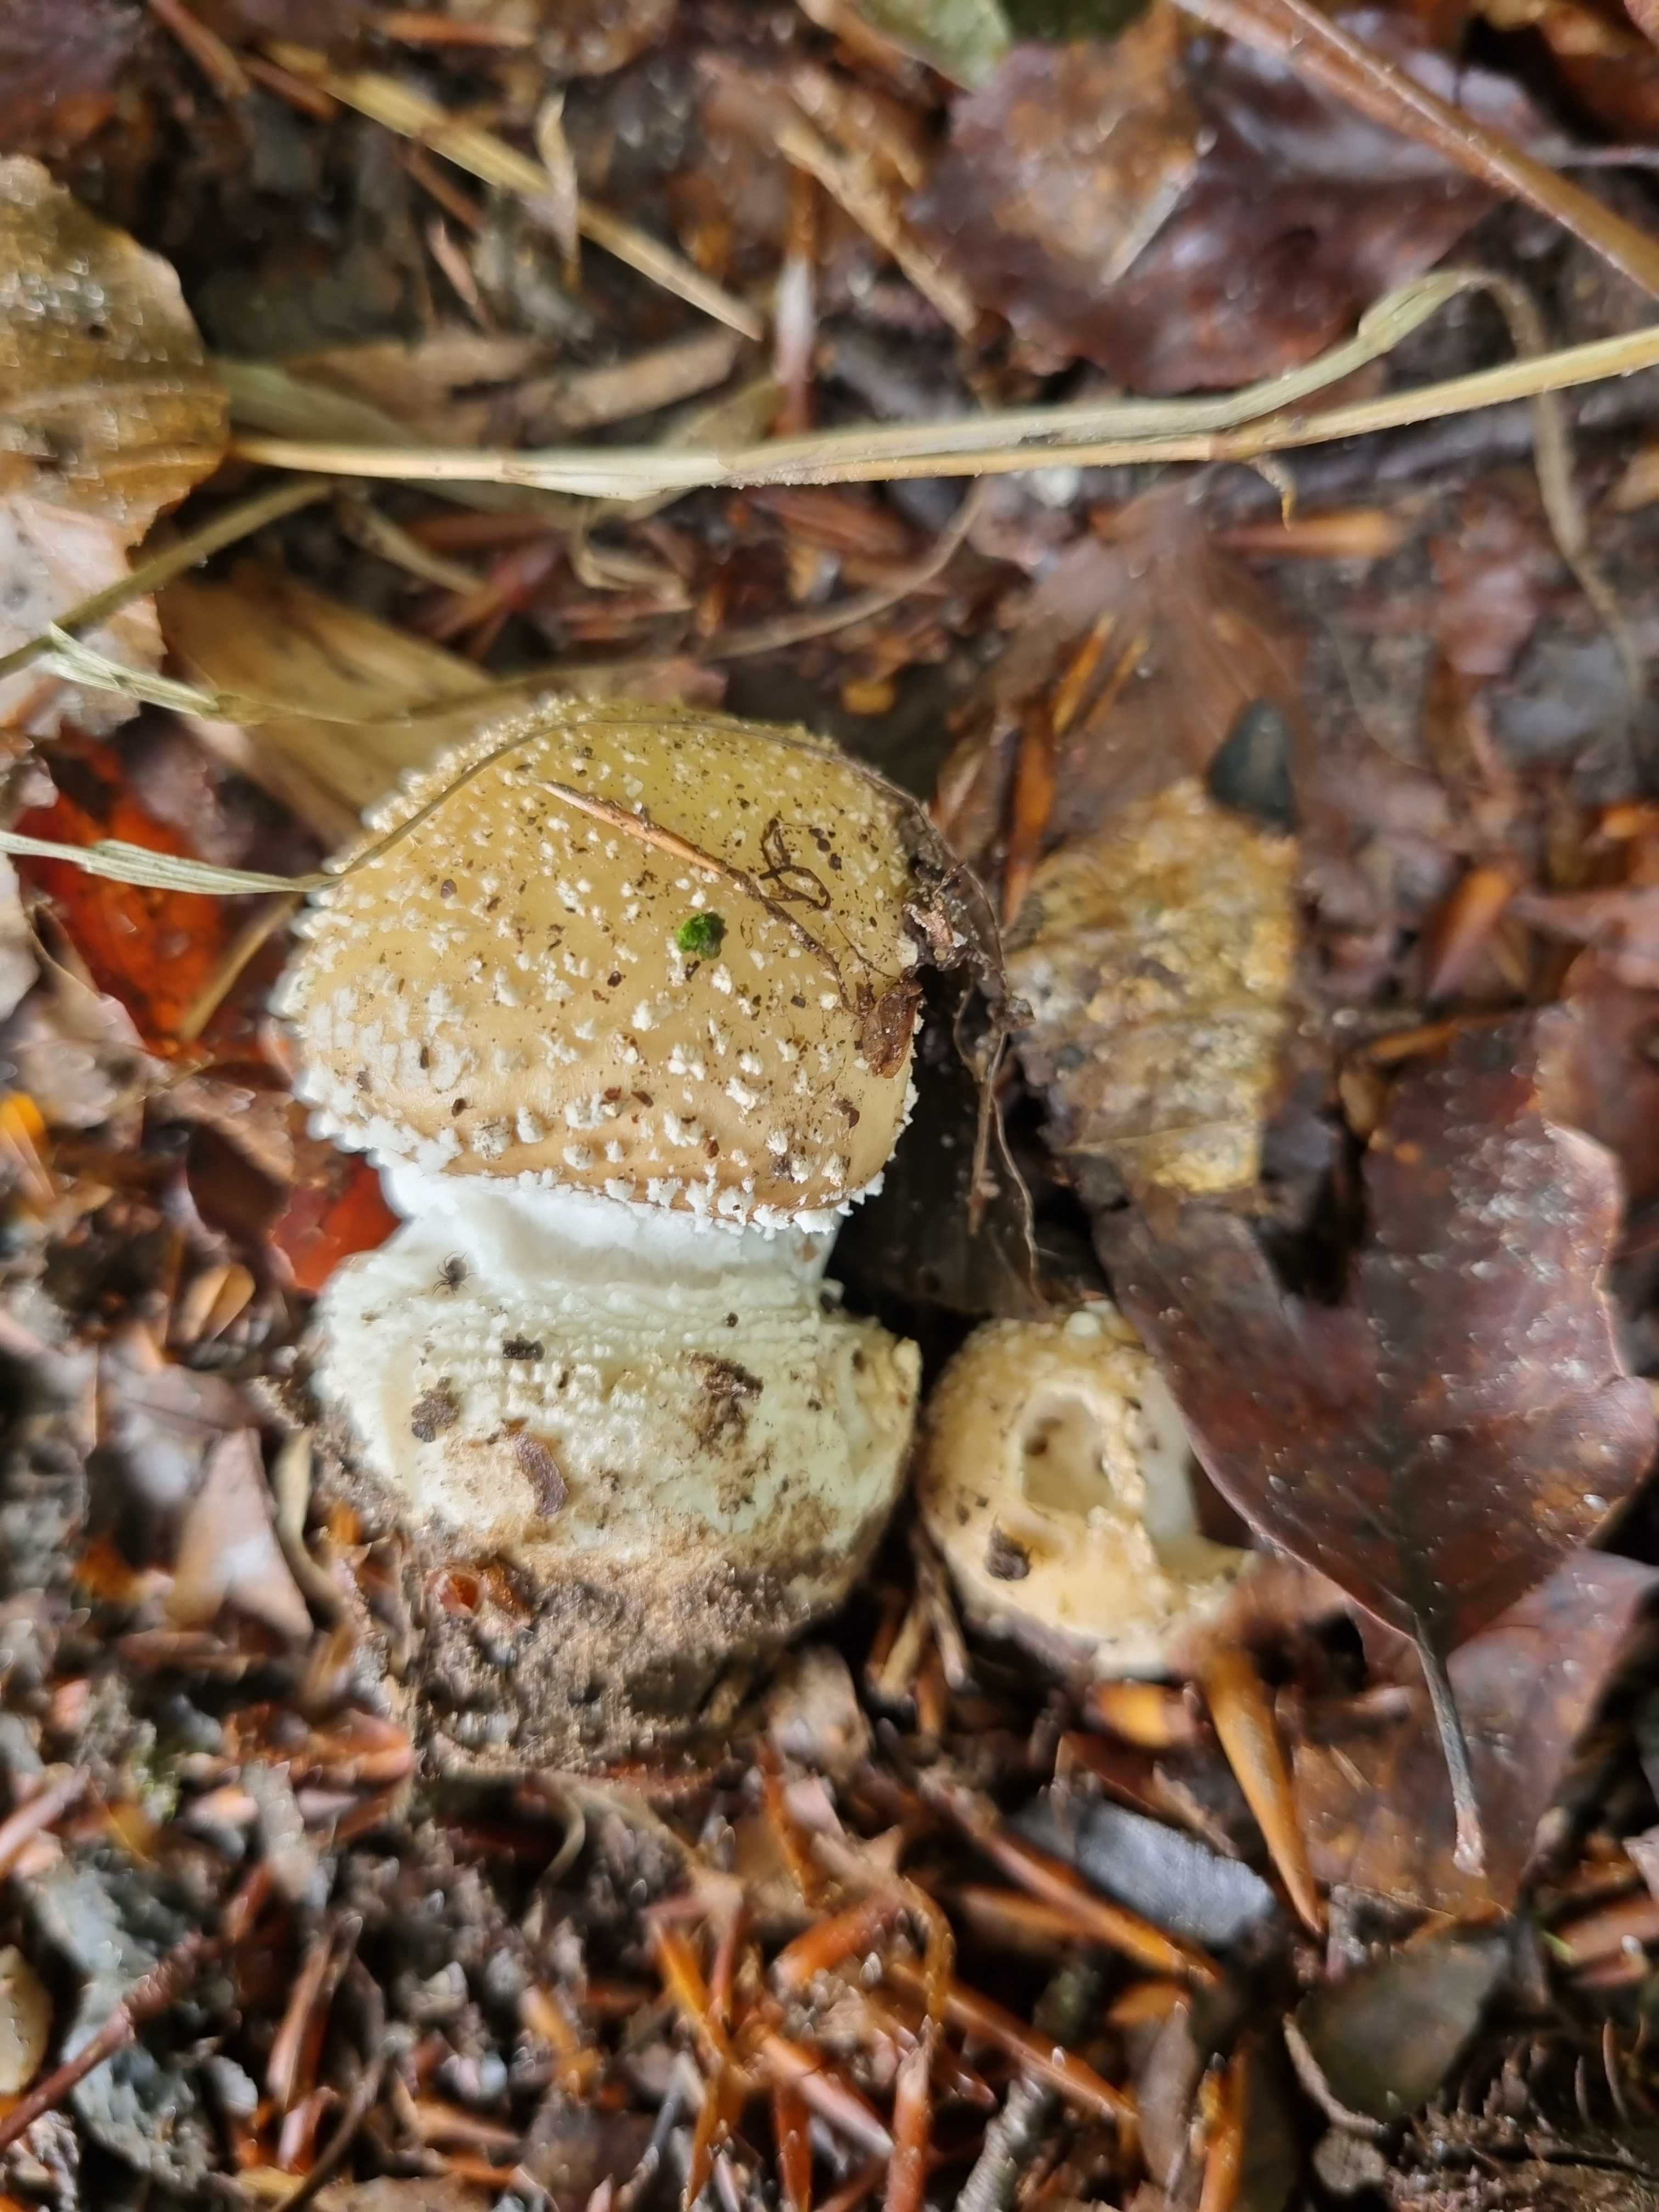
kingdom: Fungi
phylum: Basidiomycota
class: Agaricomycetes
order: Agaricales
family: Amanitaceae
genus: Amanita
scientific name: Amanita pantherina
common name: panter-fluesvamp
